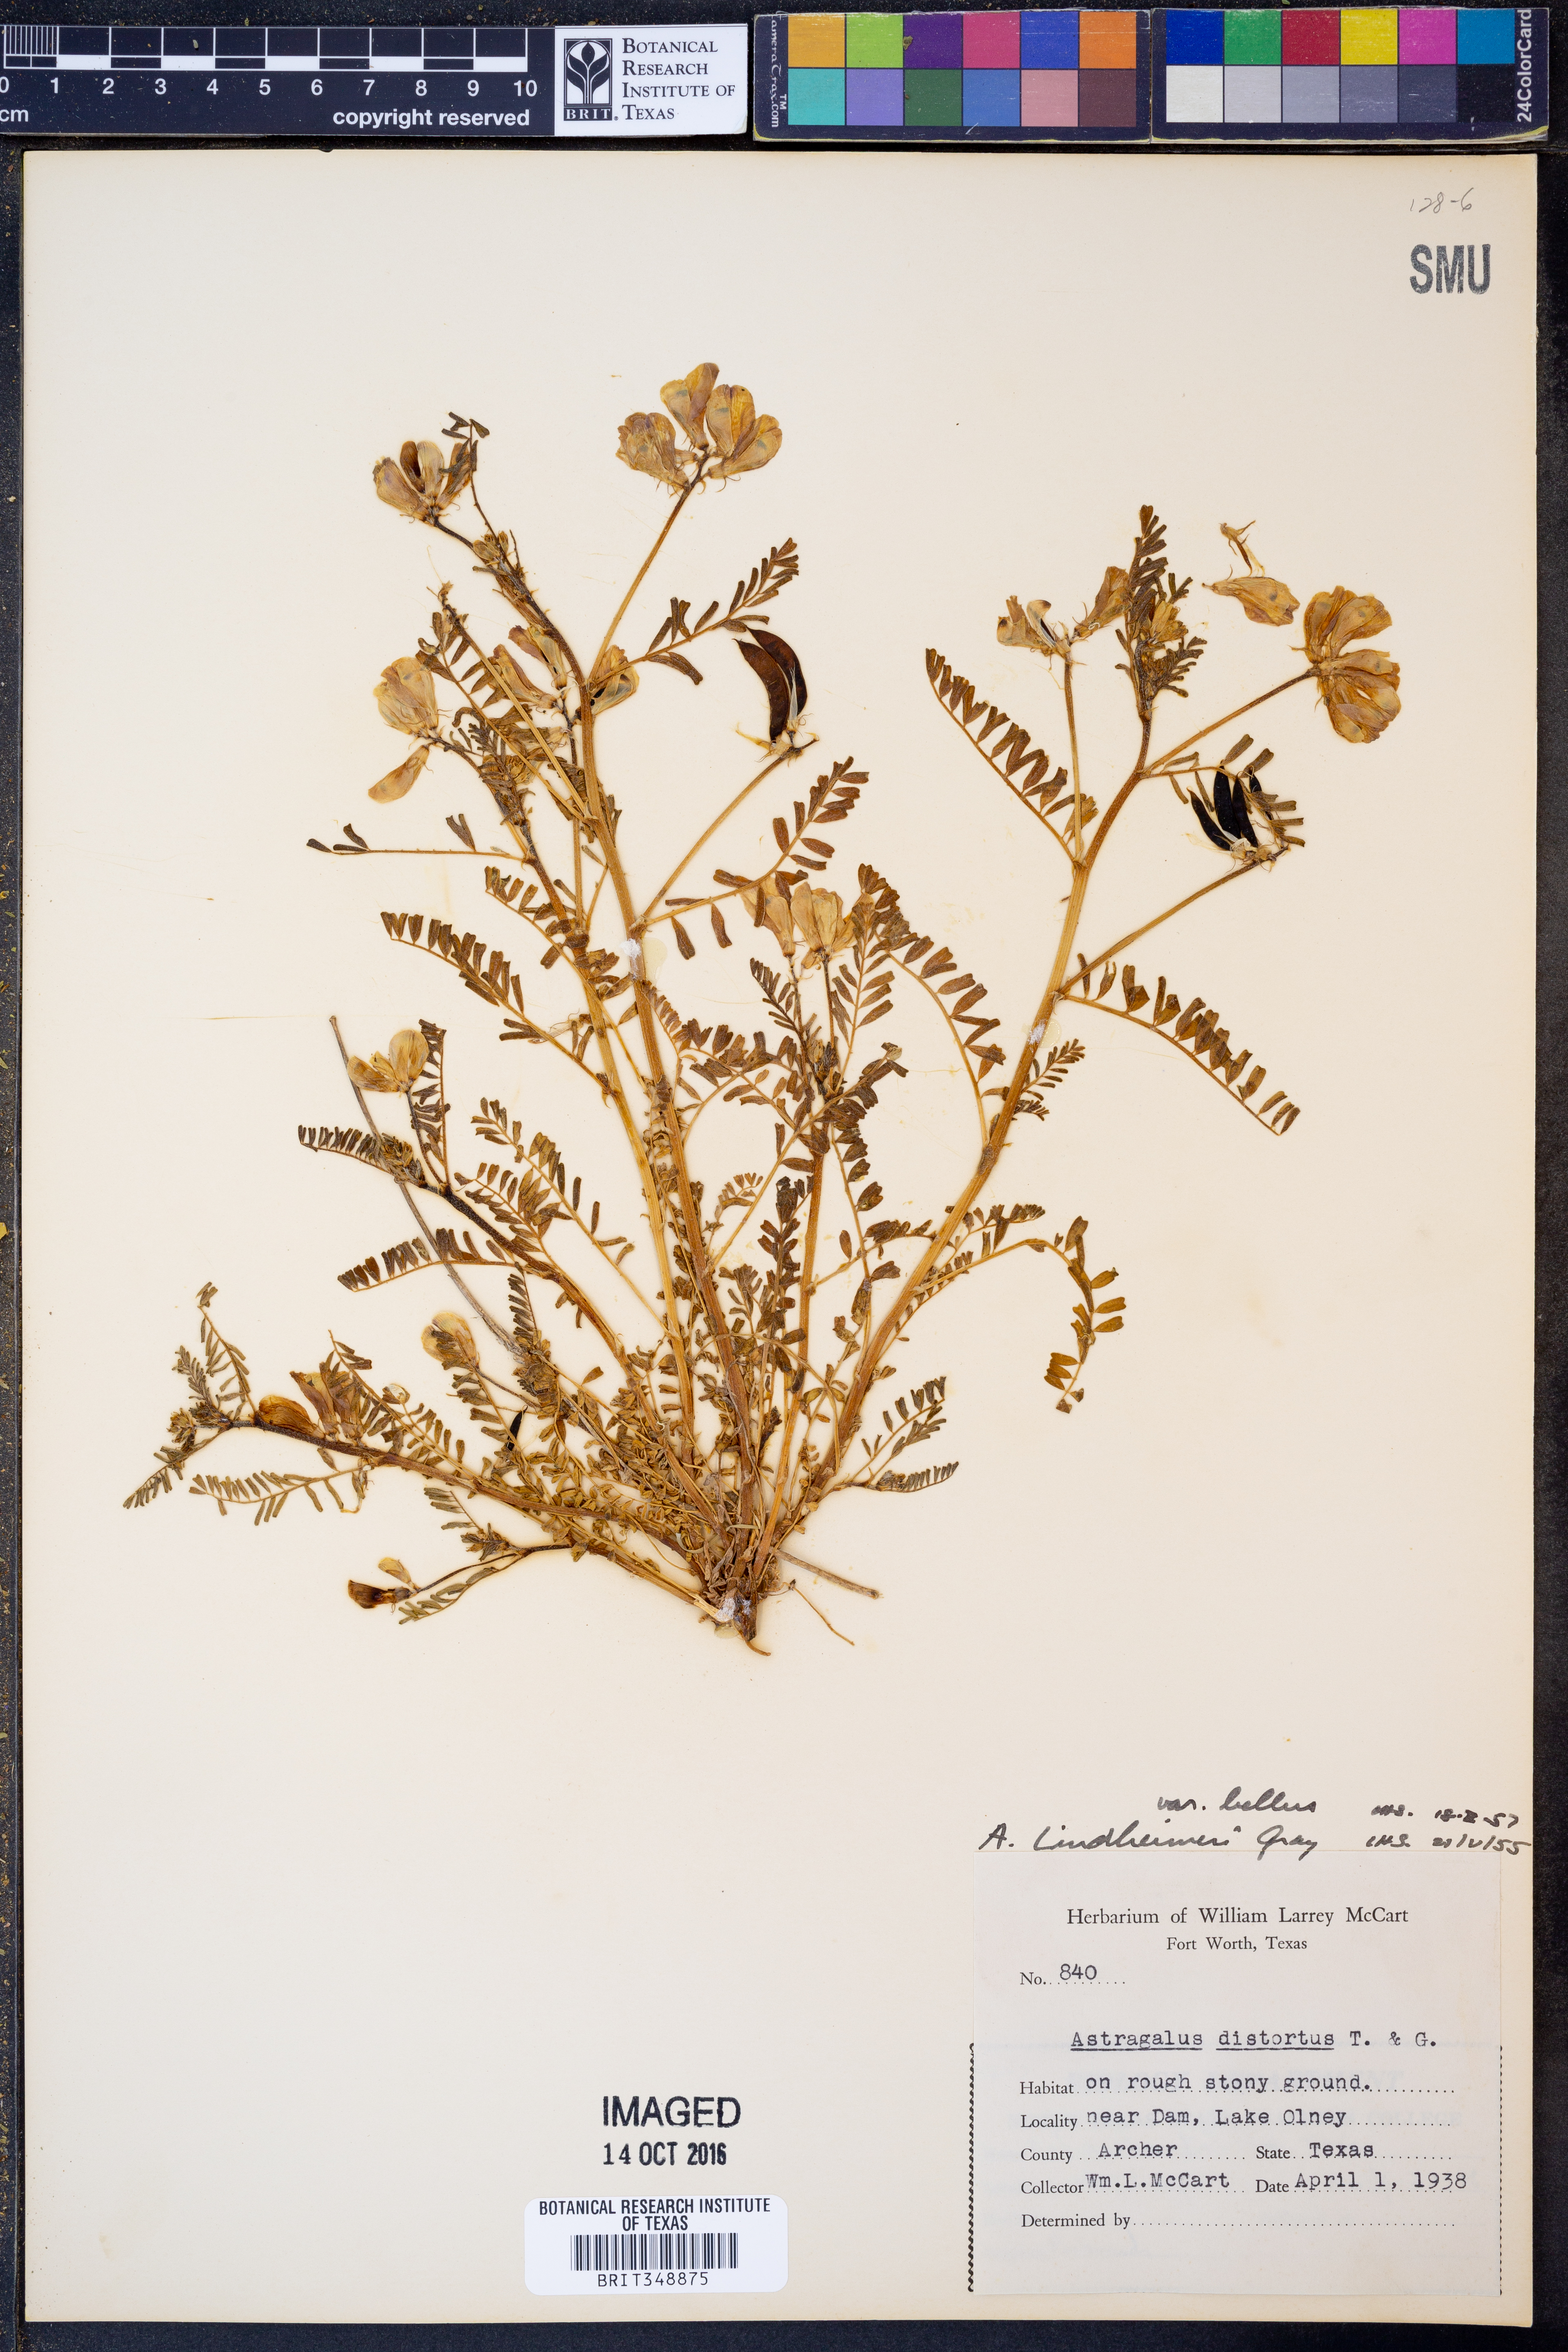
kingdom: Plantae
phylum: Tracheophyta
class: Magnoliopsida
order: Fabales
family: Fabaceae
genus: Astragalus
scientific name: Astragalus lindheimeri
